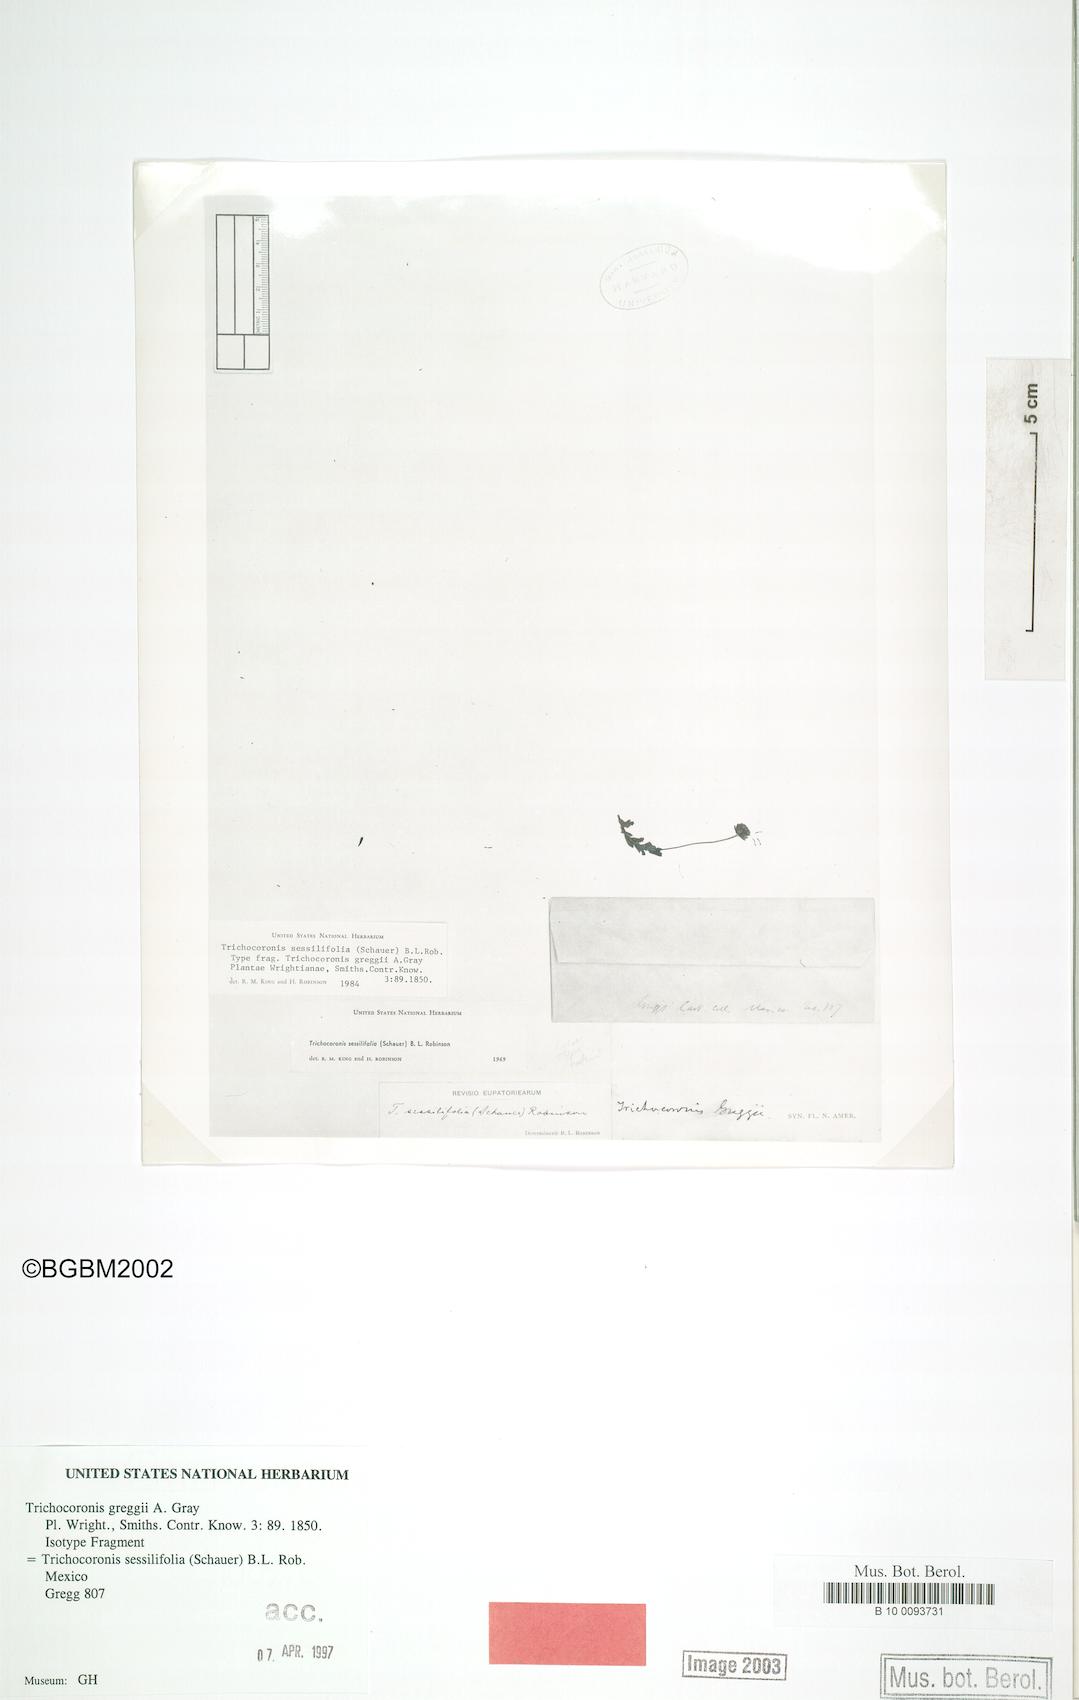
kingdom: Plantae
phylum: Tracheophyta
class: Magnoliopsida
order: Asterales
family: Asteraceae
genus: Trichocoronis
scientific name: Trichocoronis sessilifolia
